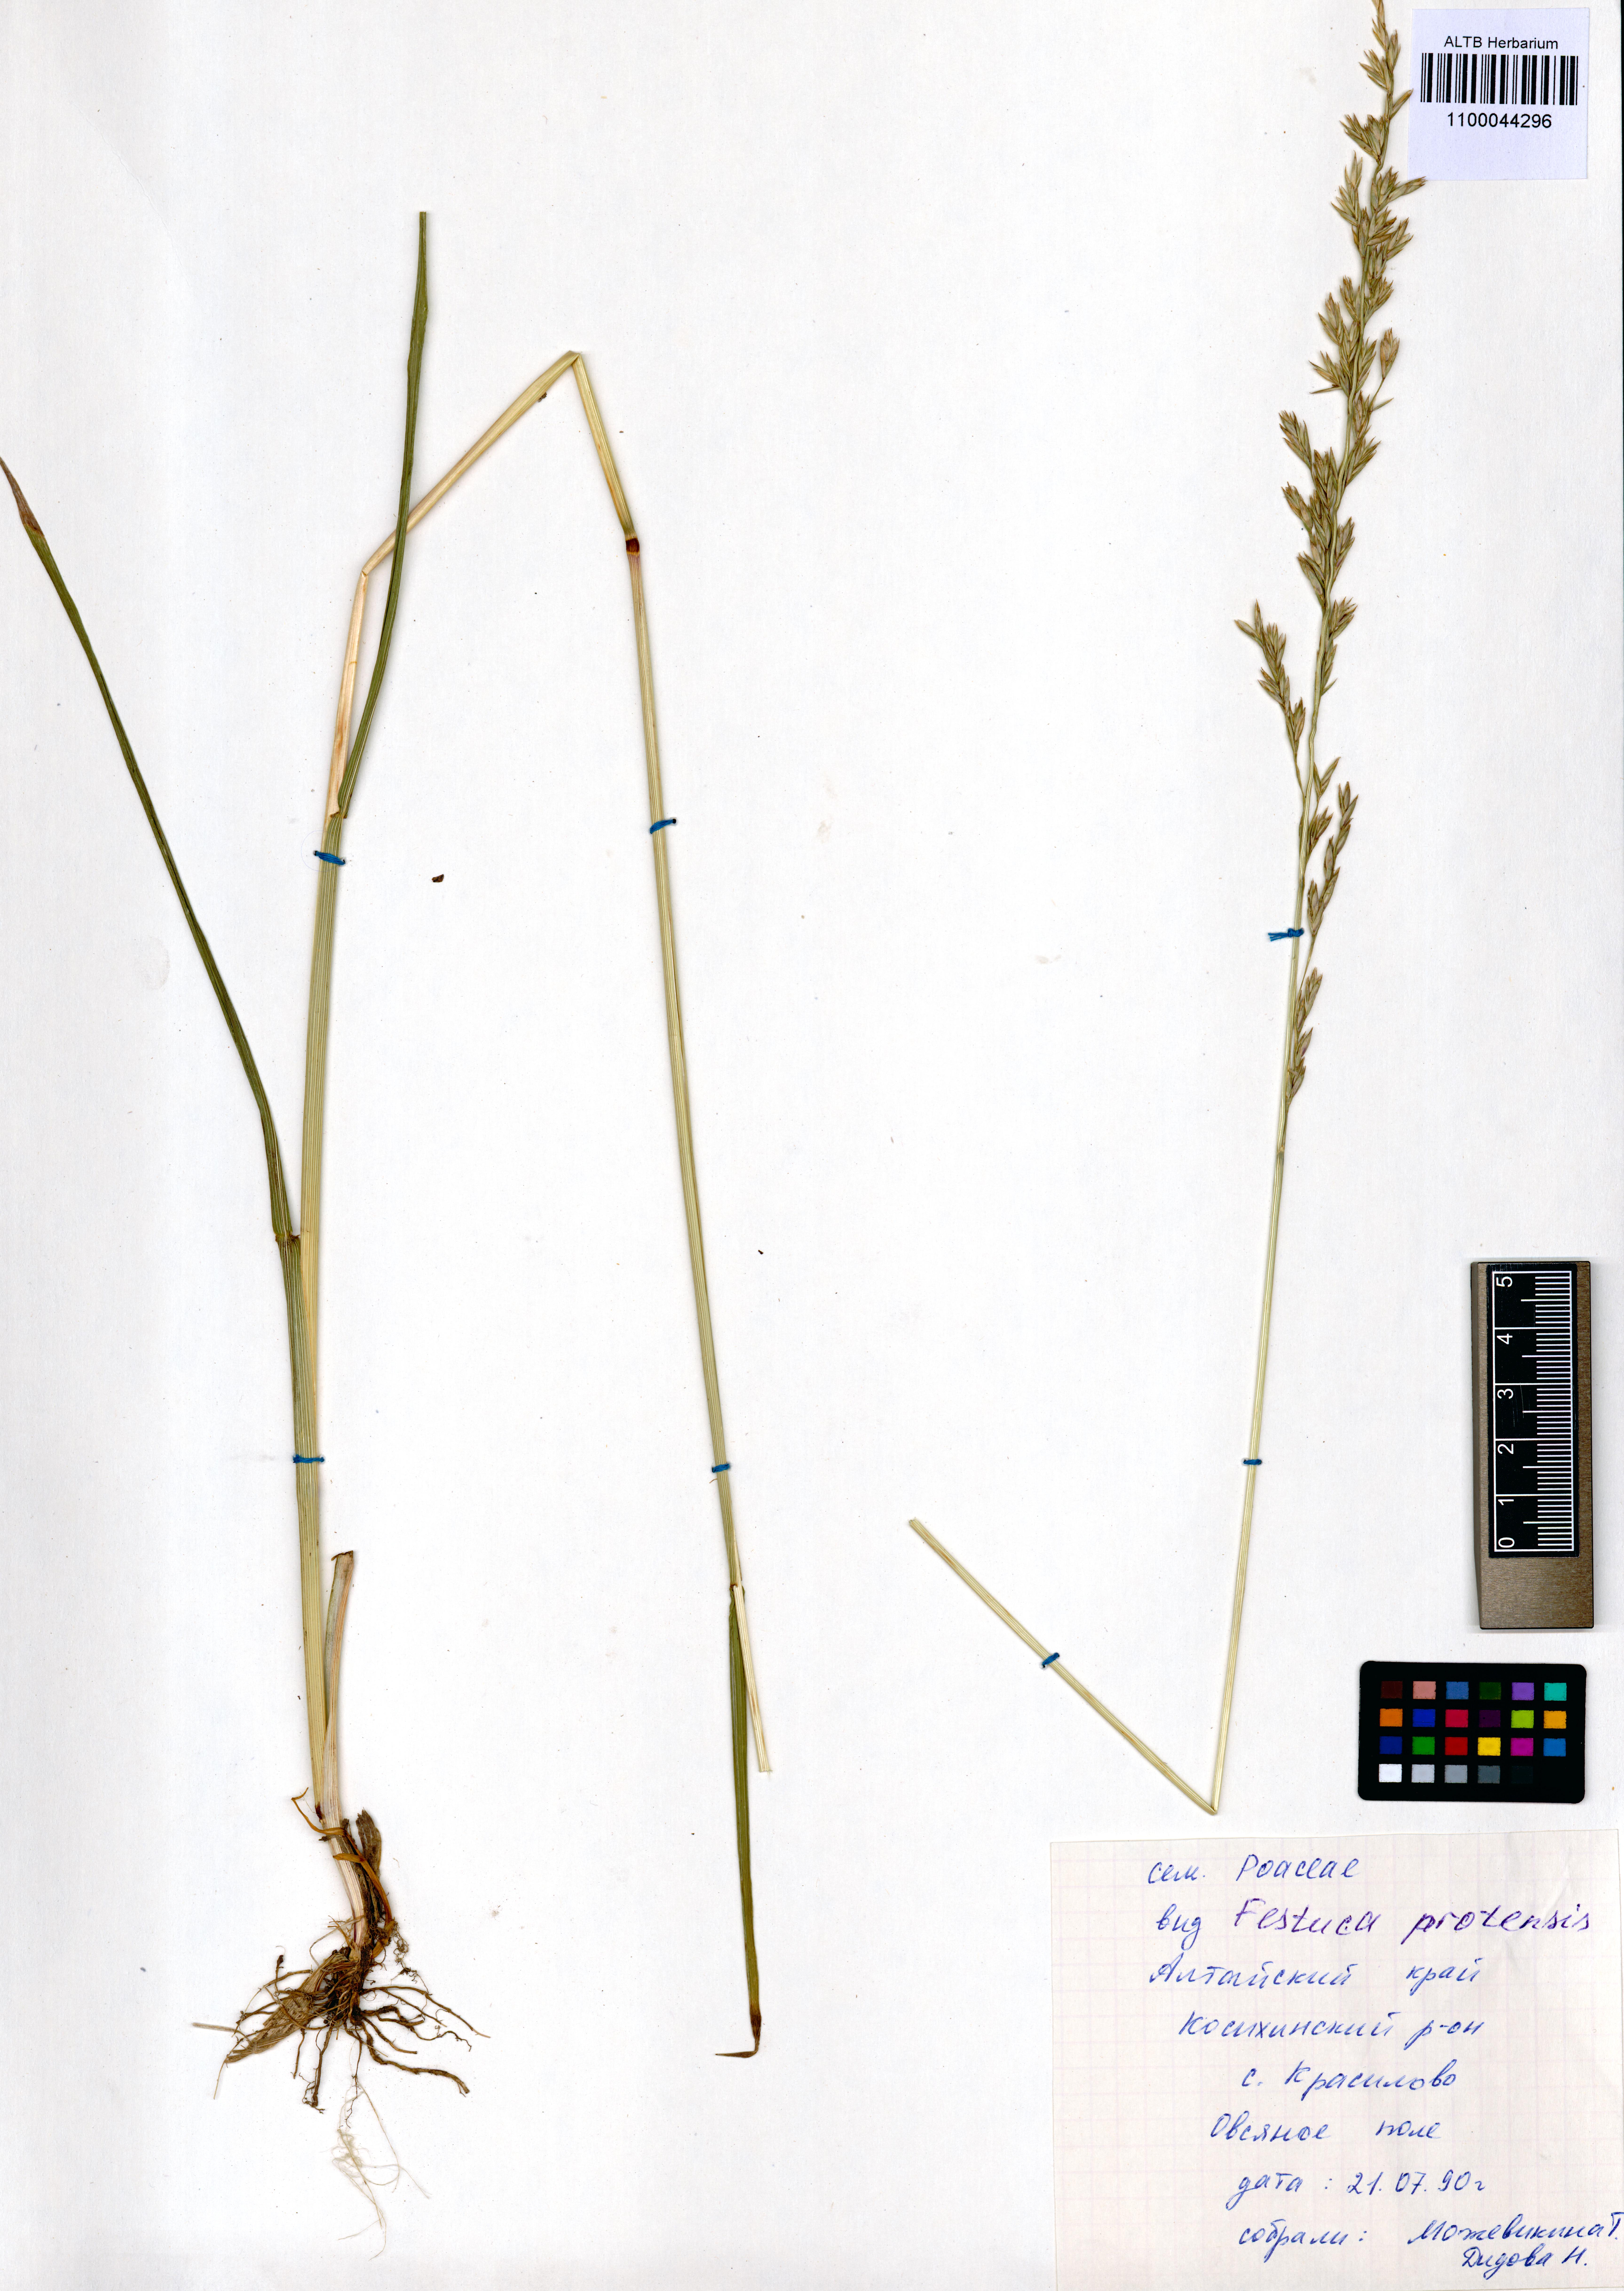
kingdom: Plantae
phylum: Tracheophyta
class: Liliopsida
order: Poales
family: Poaceae
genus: Lolium
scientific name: Lolium pratense
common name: Dover grass
